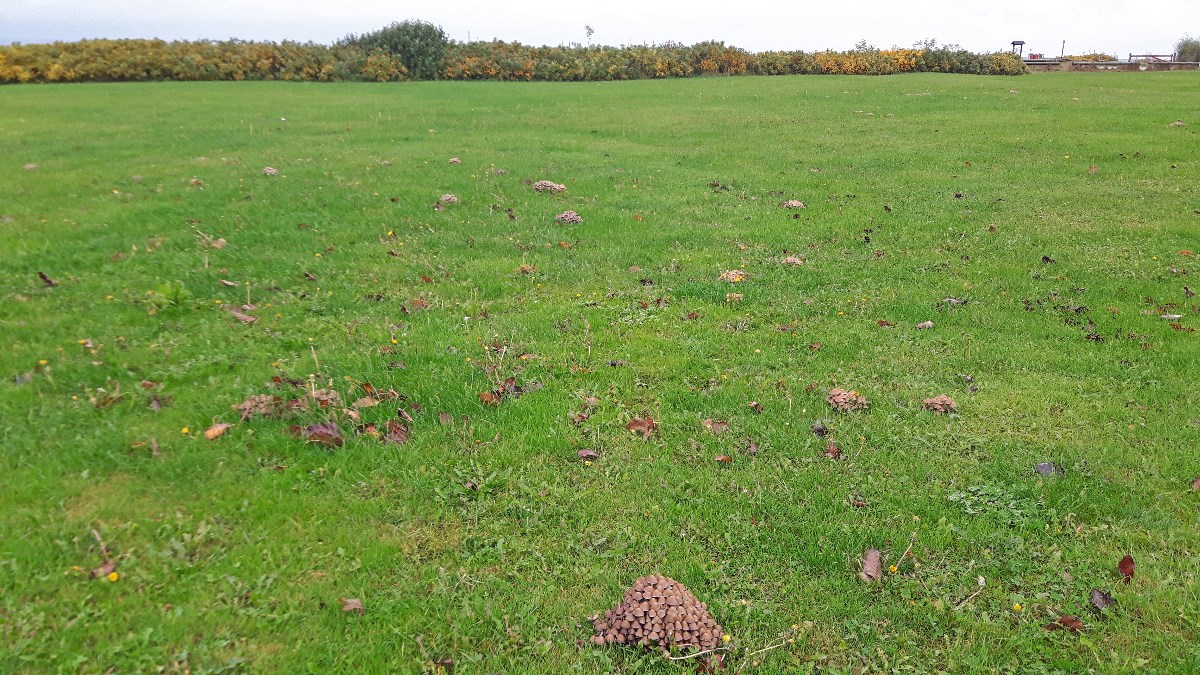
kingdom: Fungi
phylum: Basidiomycota
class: Agaricomycetes
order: Agaricales
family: Psathyrellaceae
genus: Britzelmayria
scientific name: Britzelmayria multipedata
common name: knippe-mørkhat
